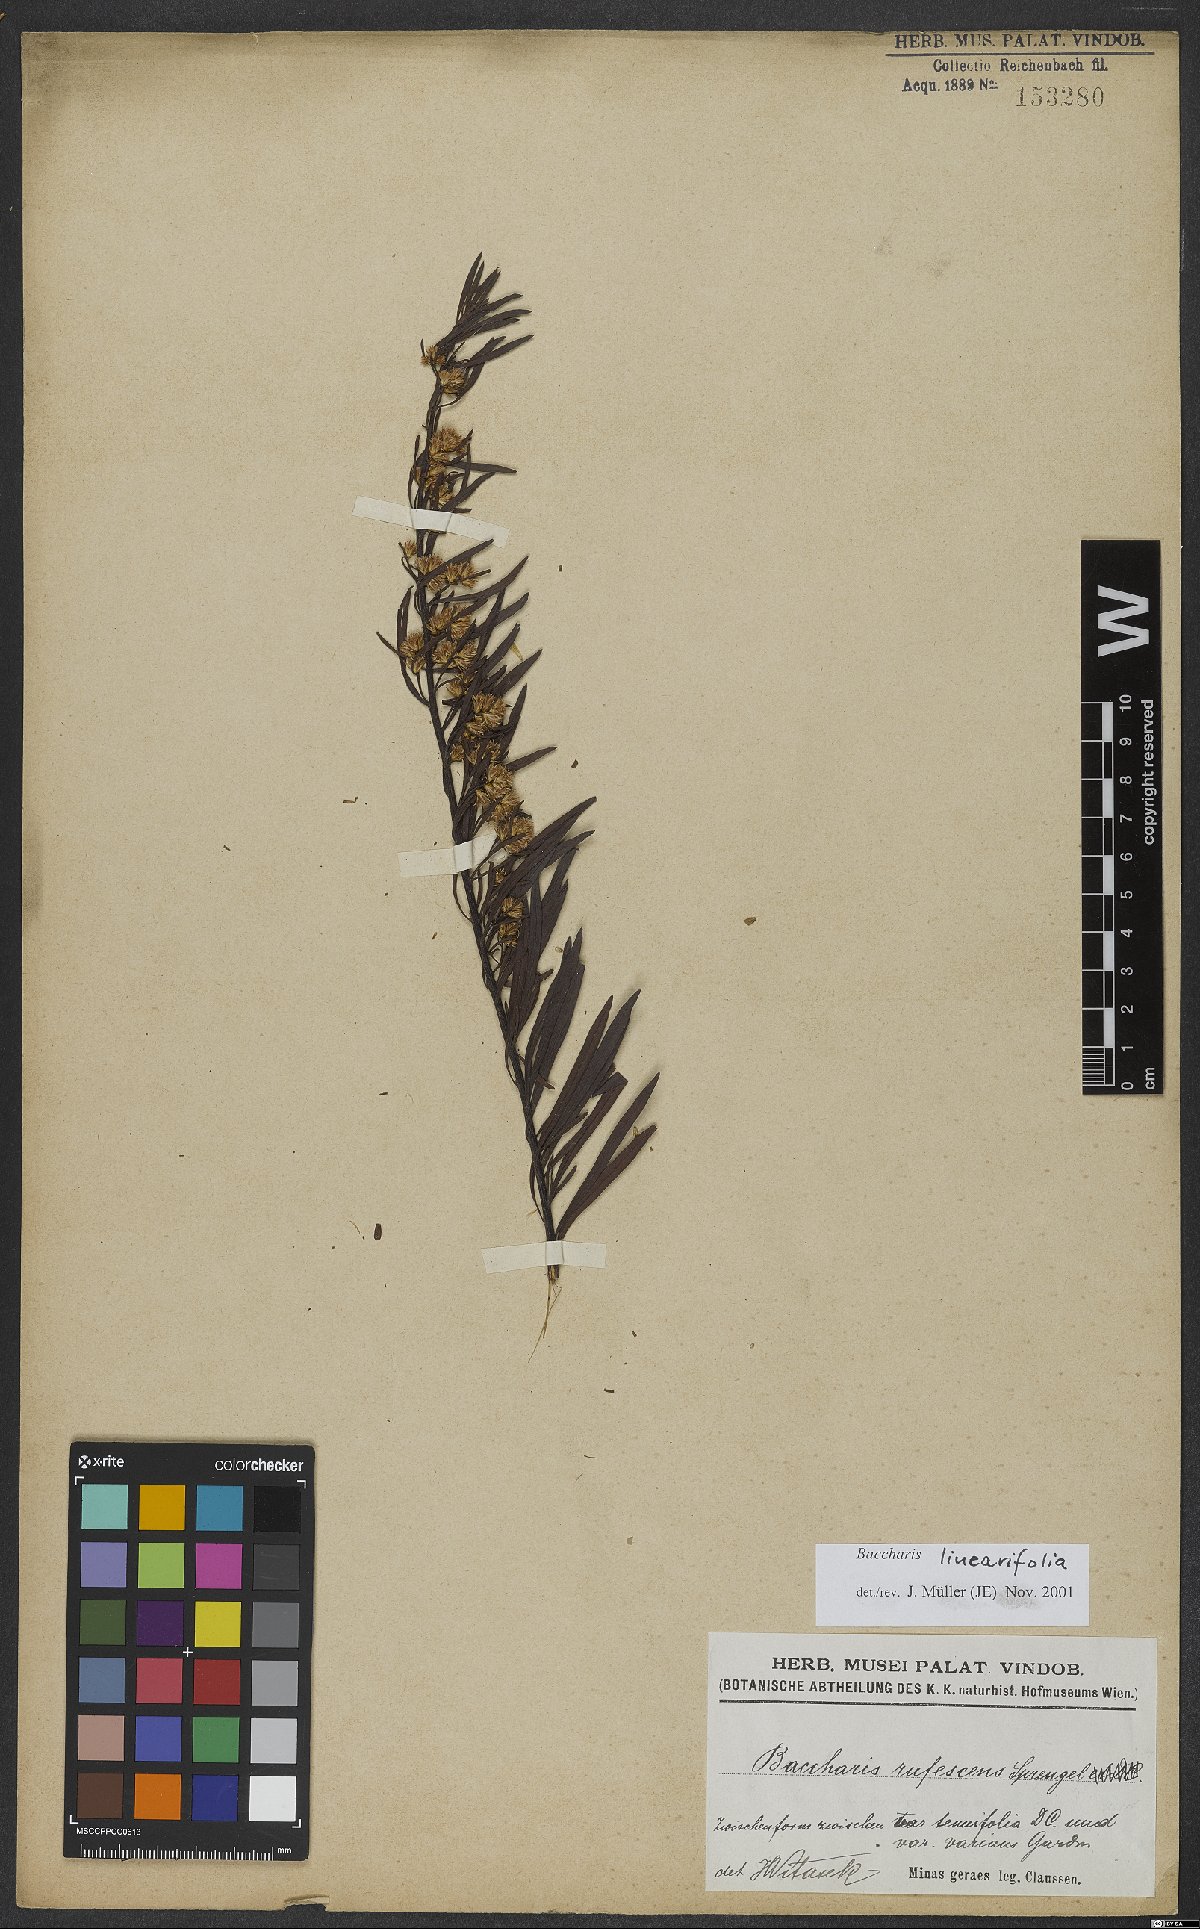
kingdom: Plantae
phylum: Tracheophyta
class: Magnoliopsida
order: Asterales
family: Asteraceae
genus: Baccharis
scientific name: Baccharis linearifolia
